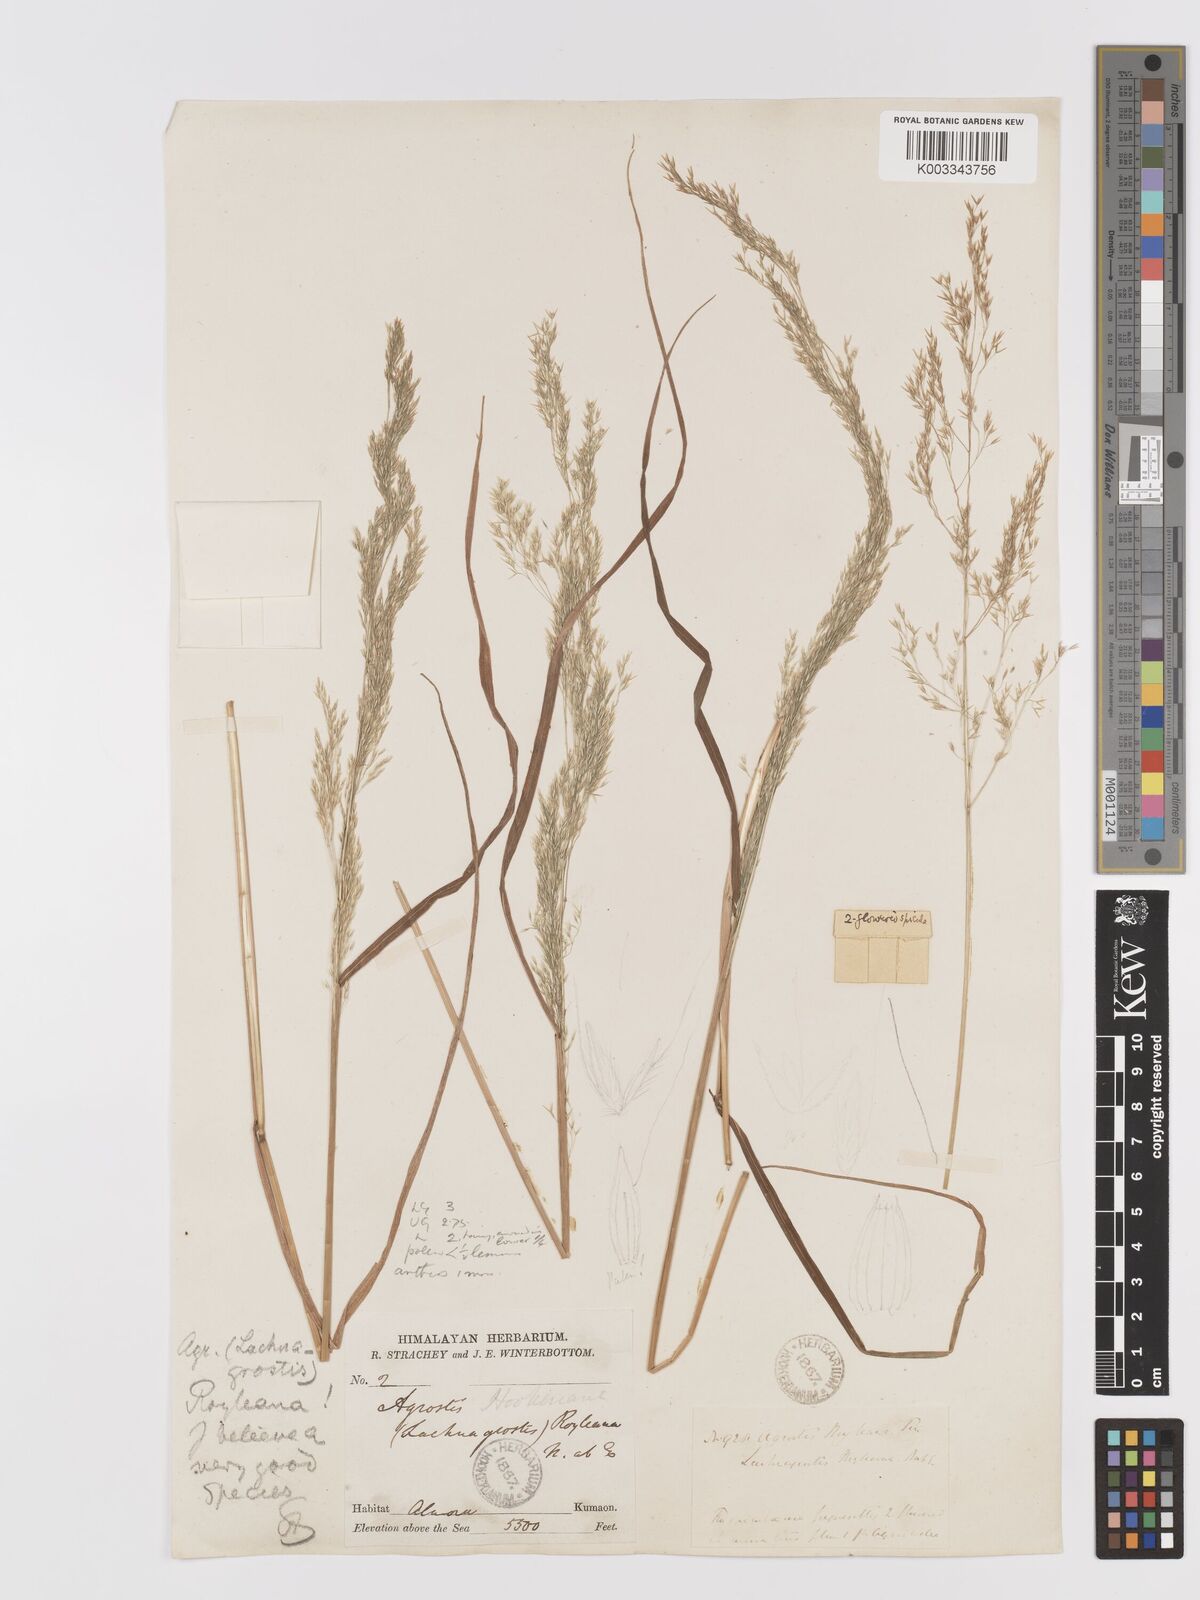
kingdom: Plantae
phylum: Tracheophyta
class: Liliopsida
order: Poales
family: Poaceae
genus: Agrostis
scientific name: Agrostis pilosula
